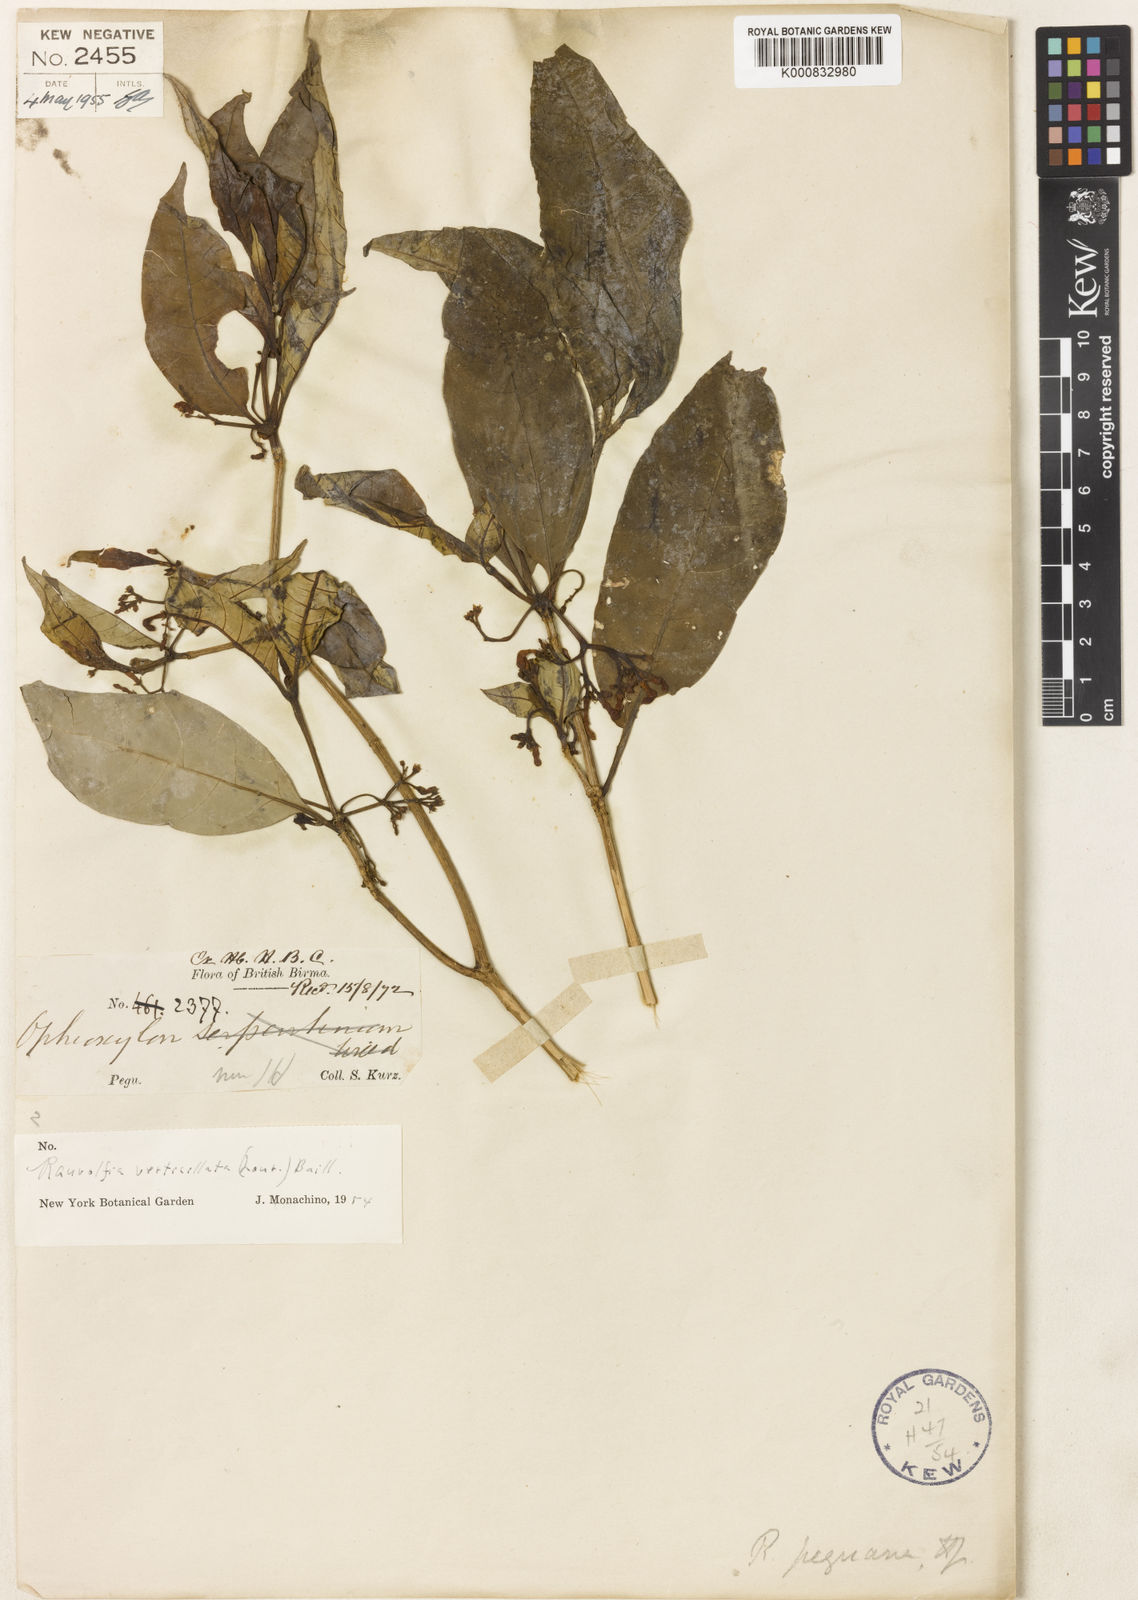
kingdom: Plantae
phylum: Tracheophyta
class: Magnoliopsida
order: Gentianales
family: Apocynaceae
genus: Rauvolfia
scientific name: Rauvolfia peguana
